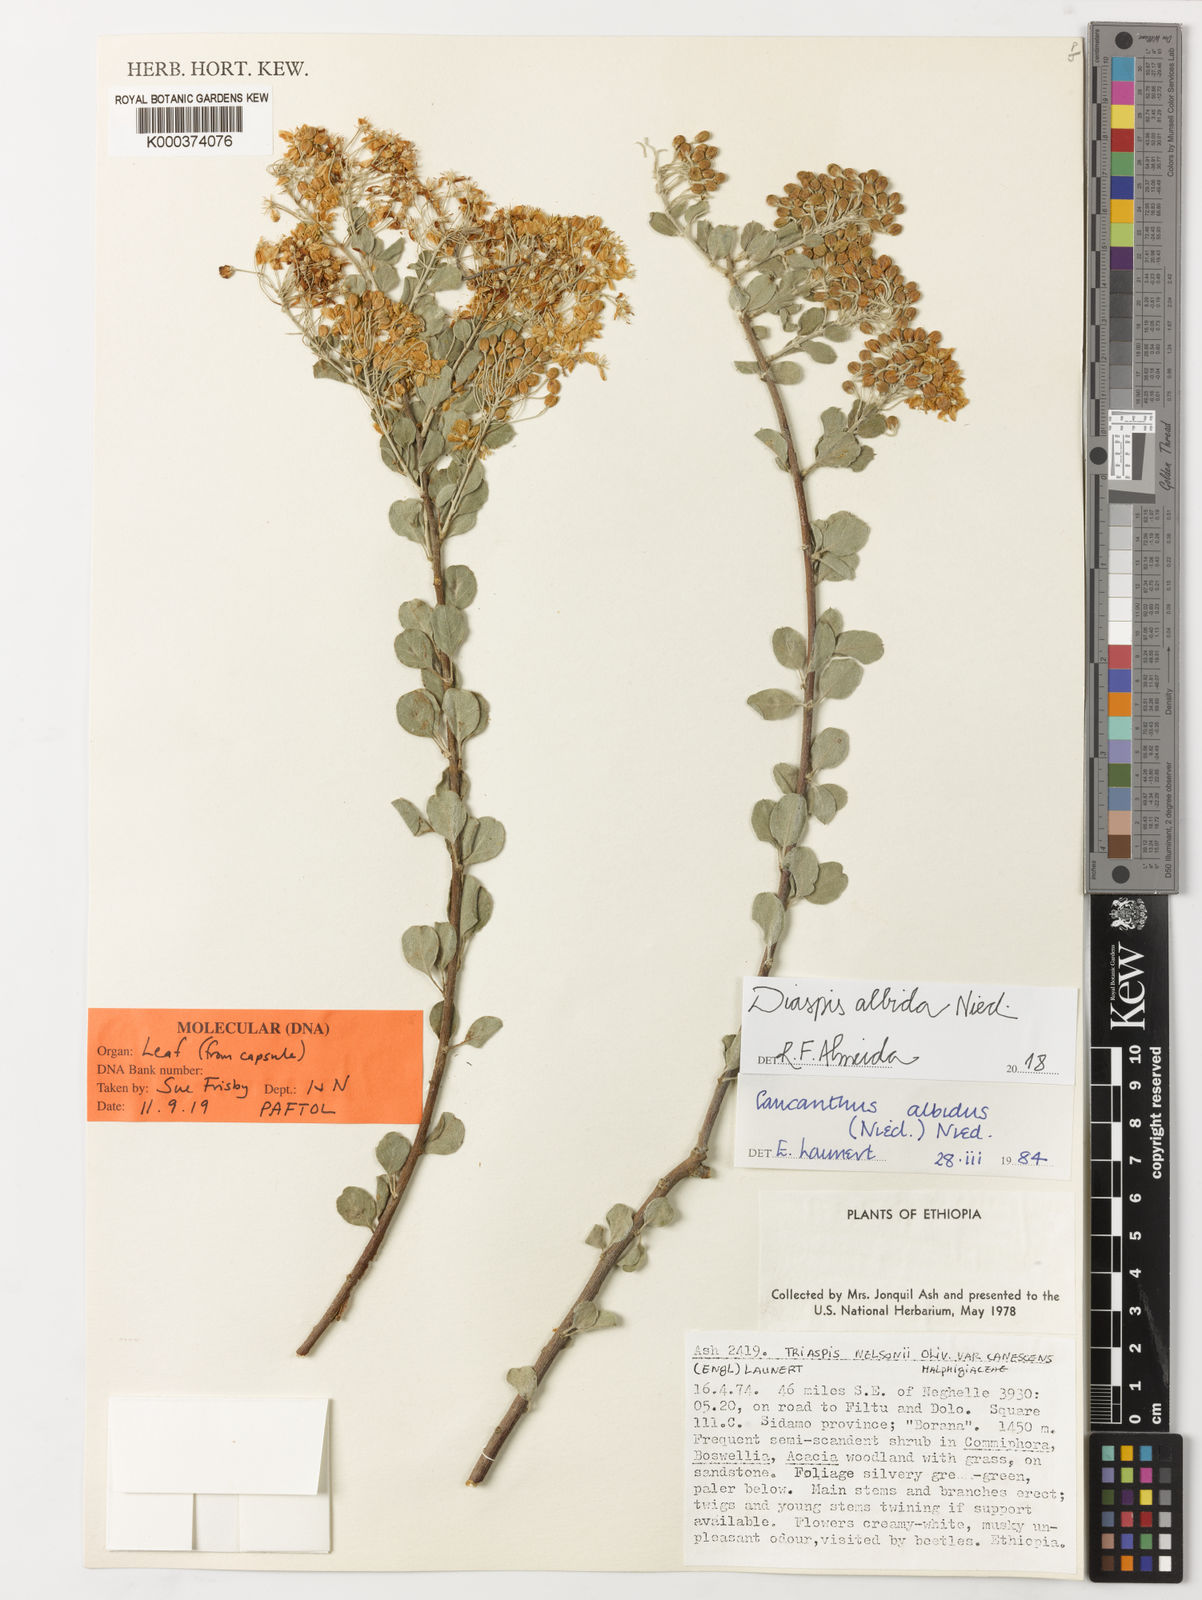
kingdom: Plantae
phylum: Tracheophyta
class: Magnoliopsida
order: Malpighiales
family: Malpighiaceae
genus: Caucanthus
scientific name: Caucanthus albidus
